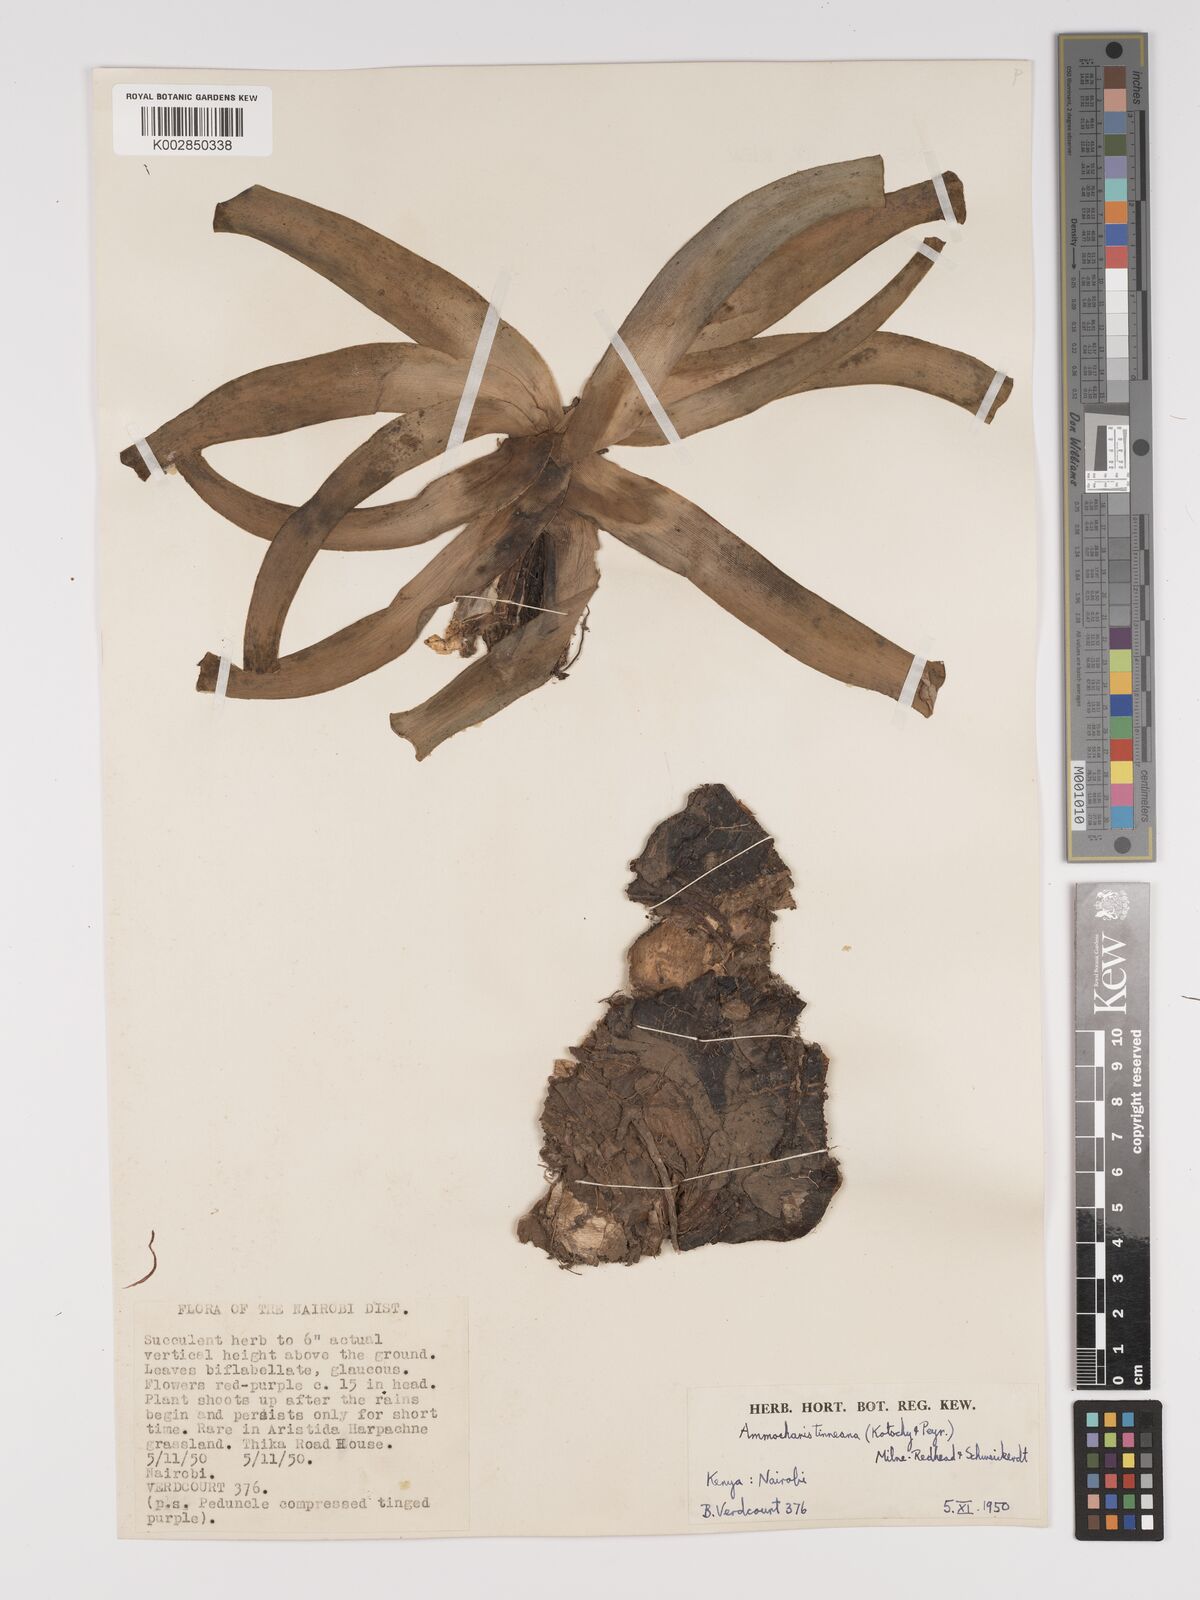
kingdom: Plantae
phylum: Tracheophyta
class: Liliopsida
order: Asparagales
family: Amaryllidaceae
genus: Ammocharis
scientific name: Ammocharis tinneana
